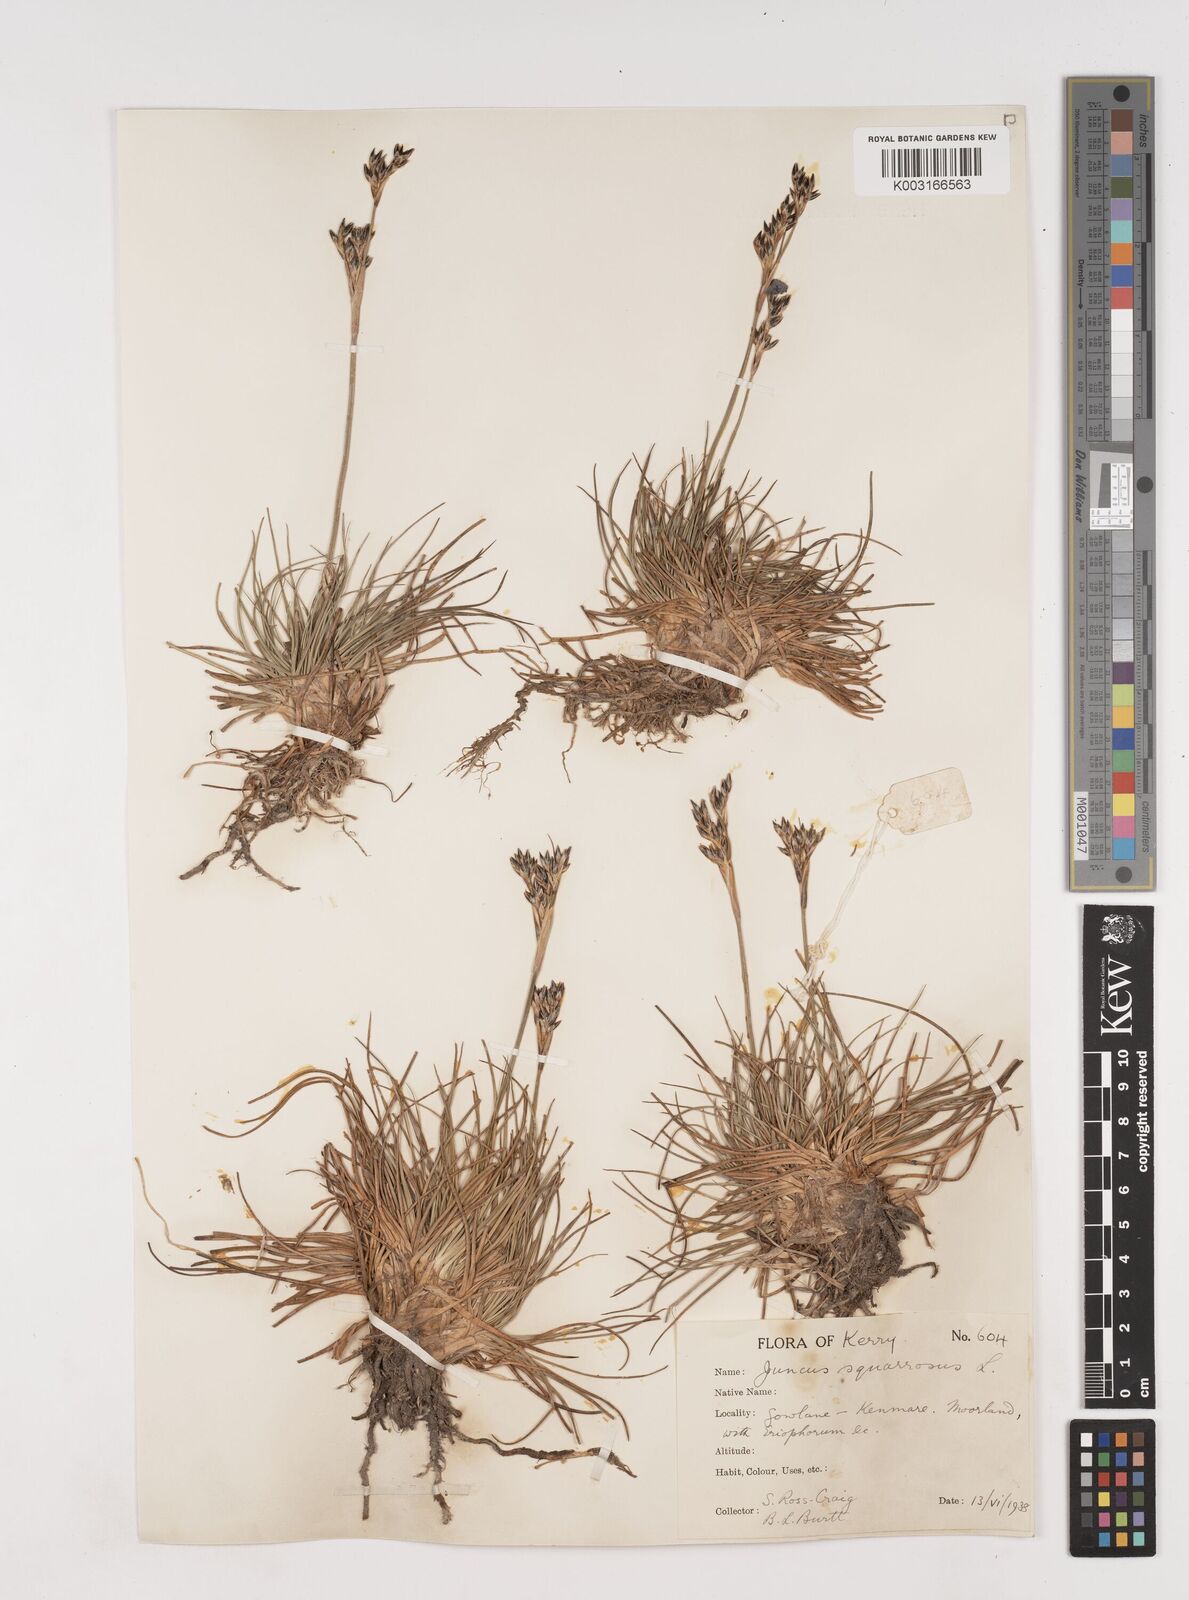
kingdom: Plantae
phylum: Tracheophyta
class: Liliopsida
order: Poales
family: Juncaceae
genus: Juncus
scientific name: Juncus squarrosus
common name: Heath rush
